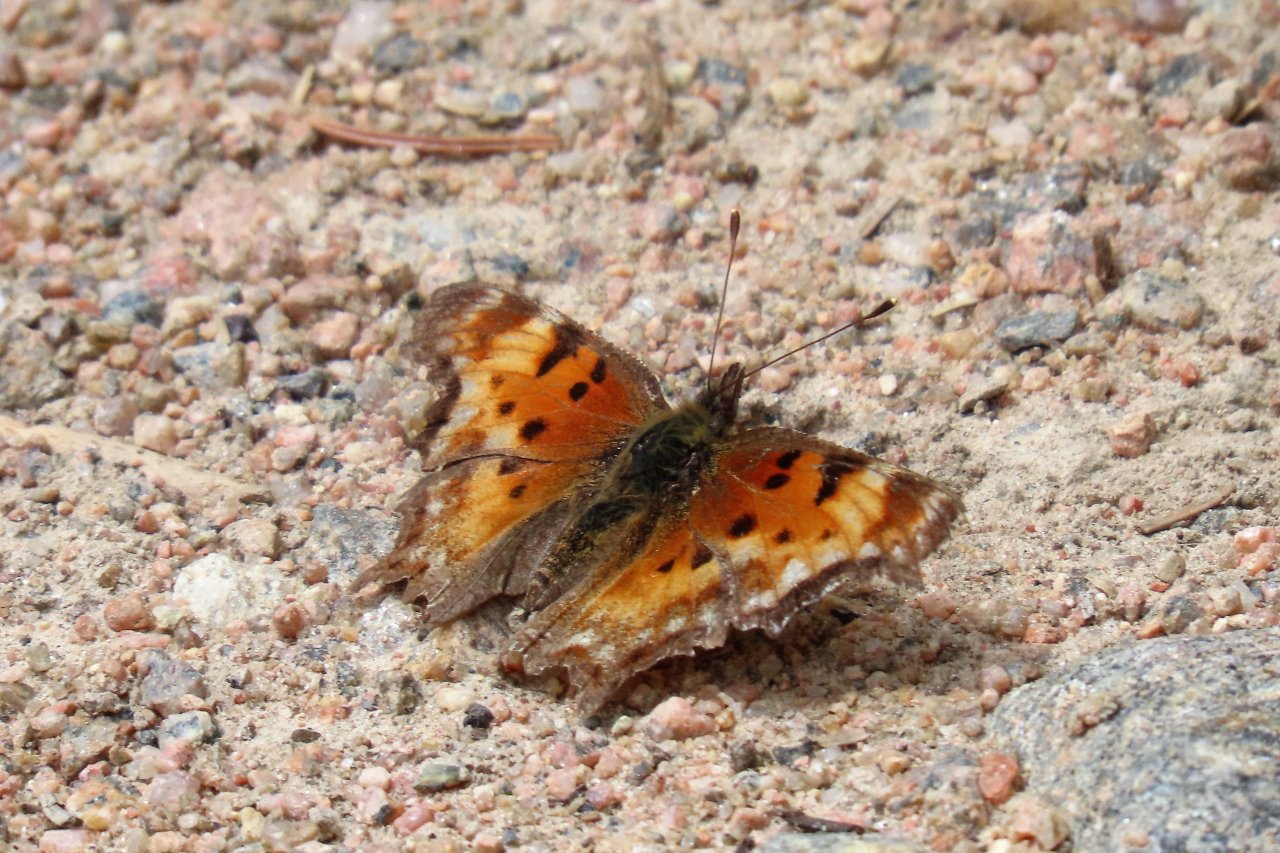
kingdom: Animalia
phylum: Arthropoda
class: Insecta
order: Lepidoptera
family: Nymphalidae
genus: Polygonia
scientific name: Polygonia gracilis
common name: Hoary Comma
